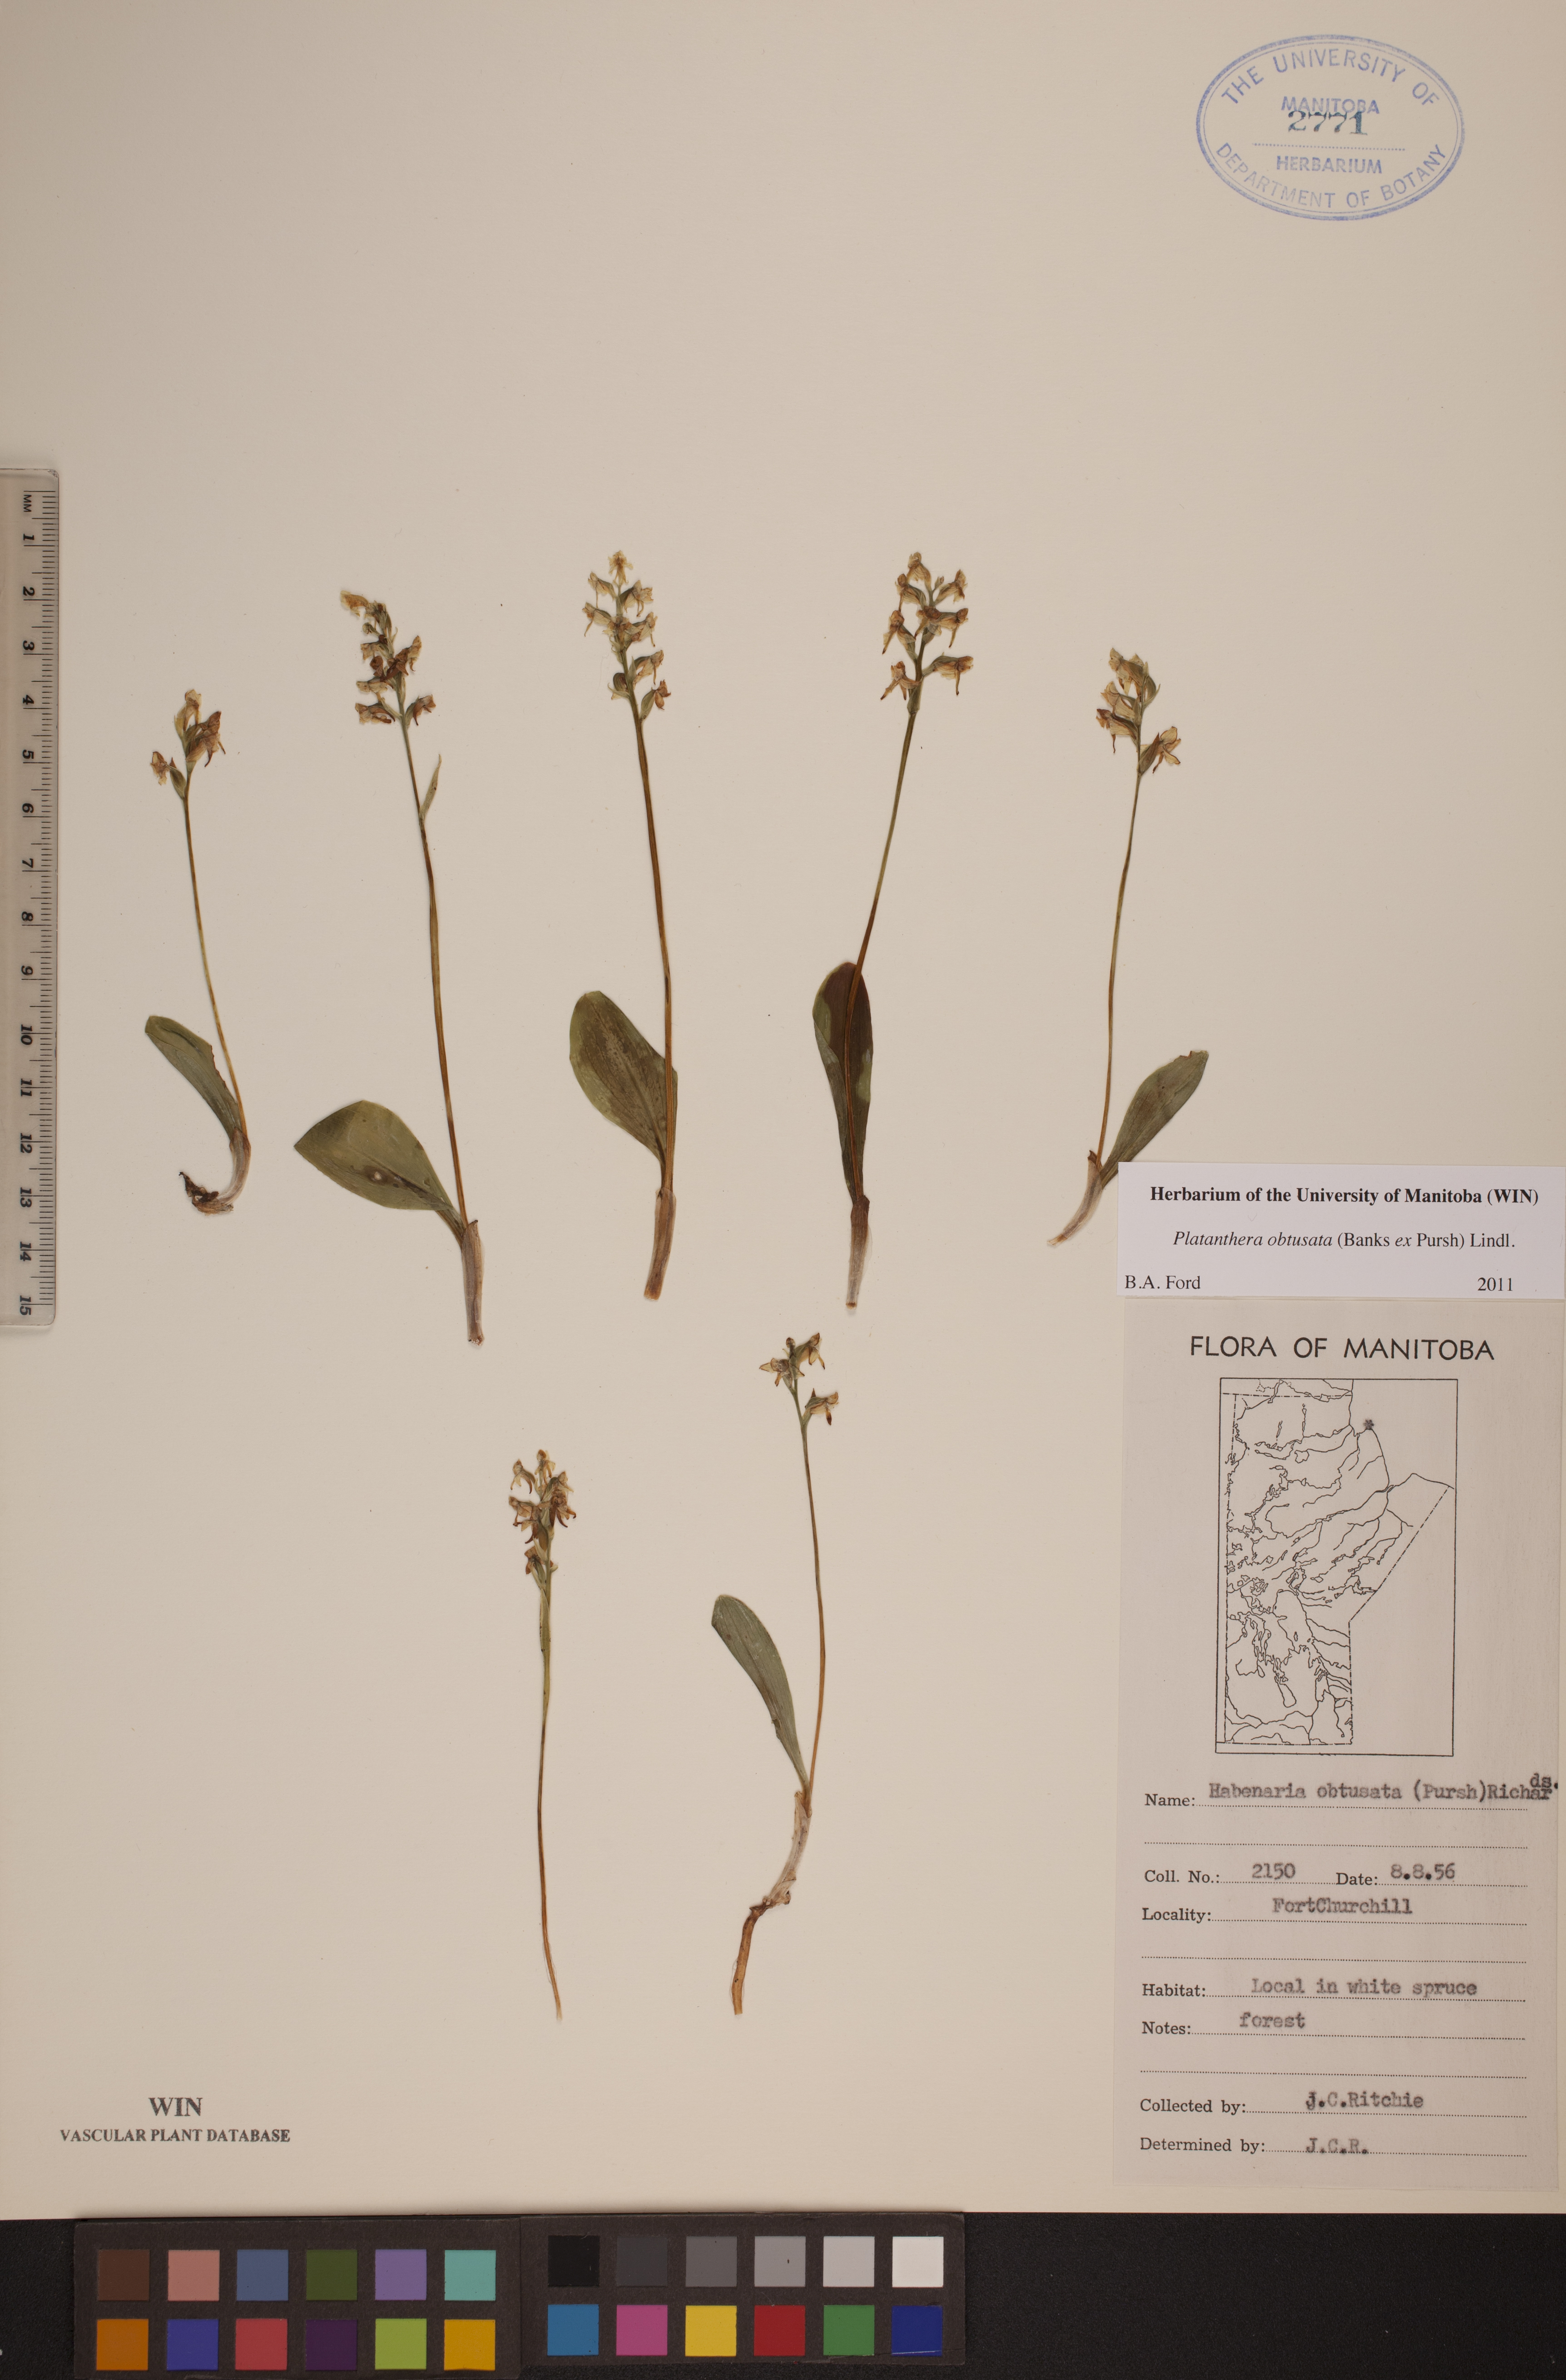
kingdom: Plantae
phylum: Tracheophyta
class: Liliopsida
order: Asparagales
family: Orchidaceae
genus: Platanthera
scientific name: Platanthera obtusata
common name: Blunt bog orchid
